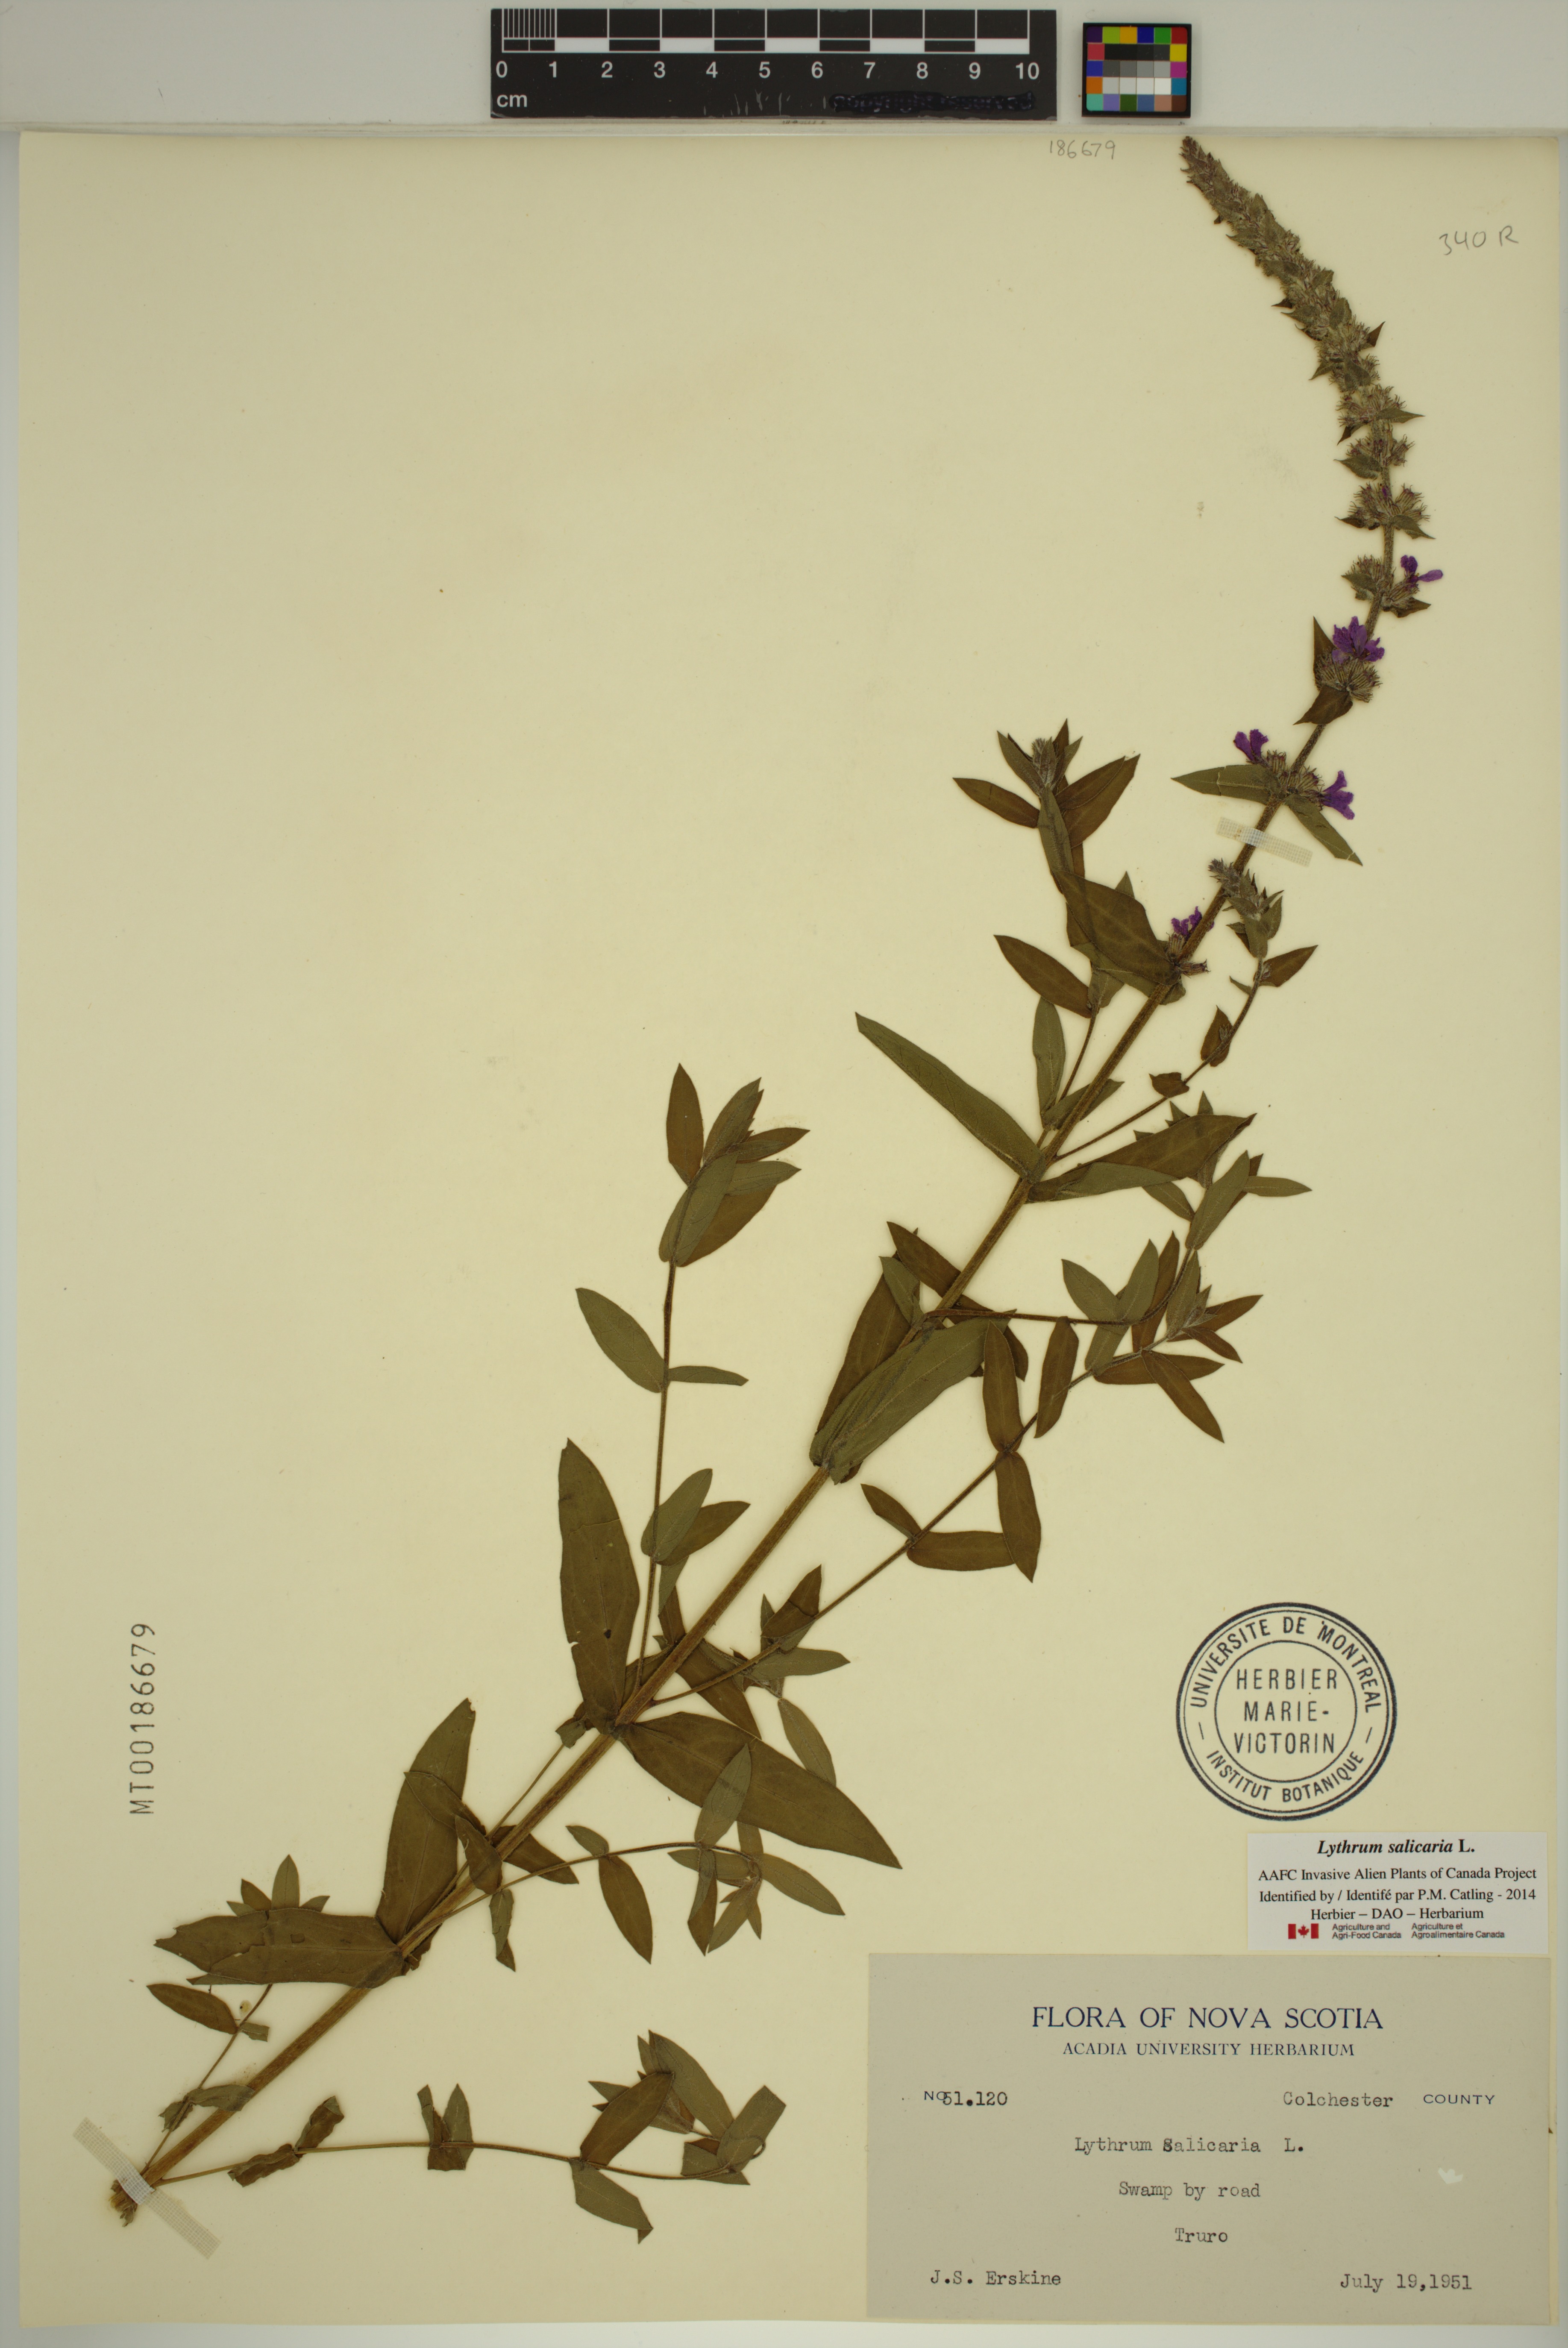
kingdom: Plantae
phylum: Tracheophyta
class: Magnoliopsida
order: Myrtales
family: Lythraceae
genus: Lythrum
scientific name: Lythrum salicaria
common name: Purple loosestrife
